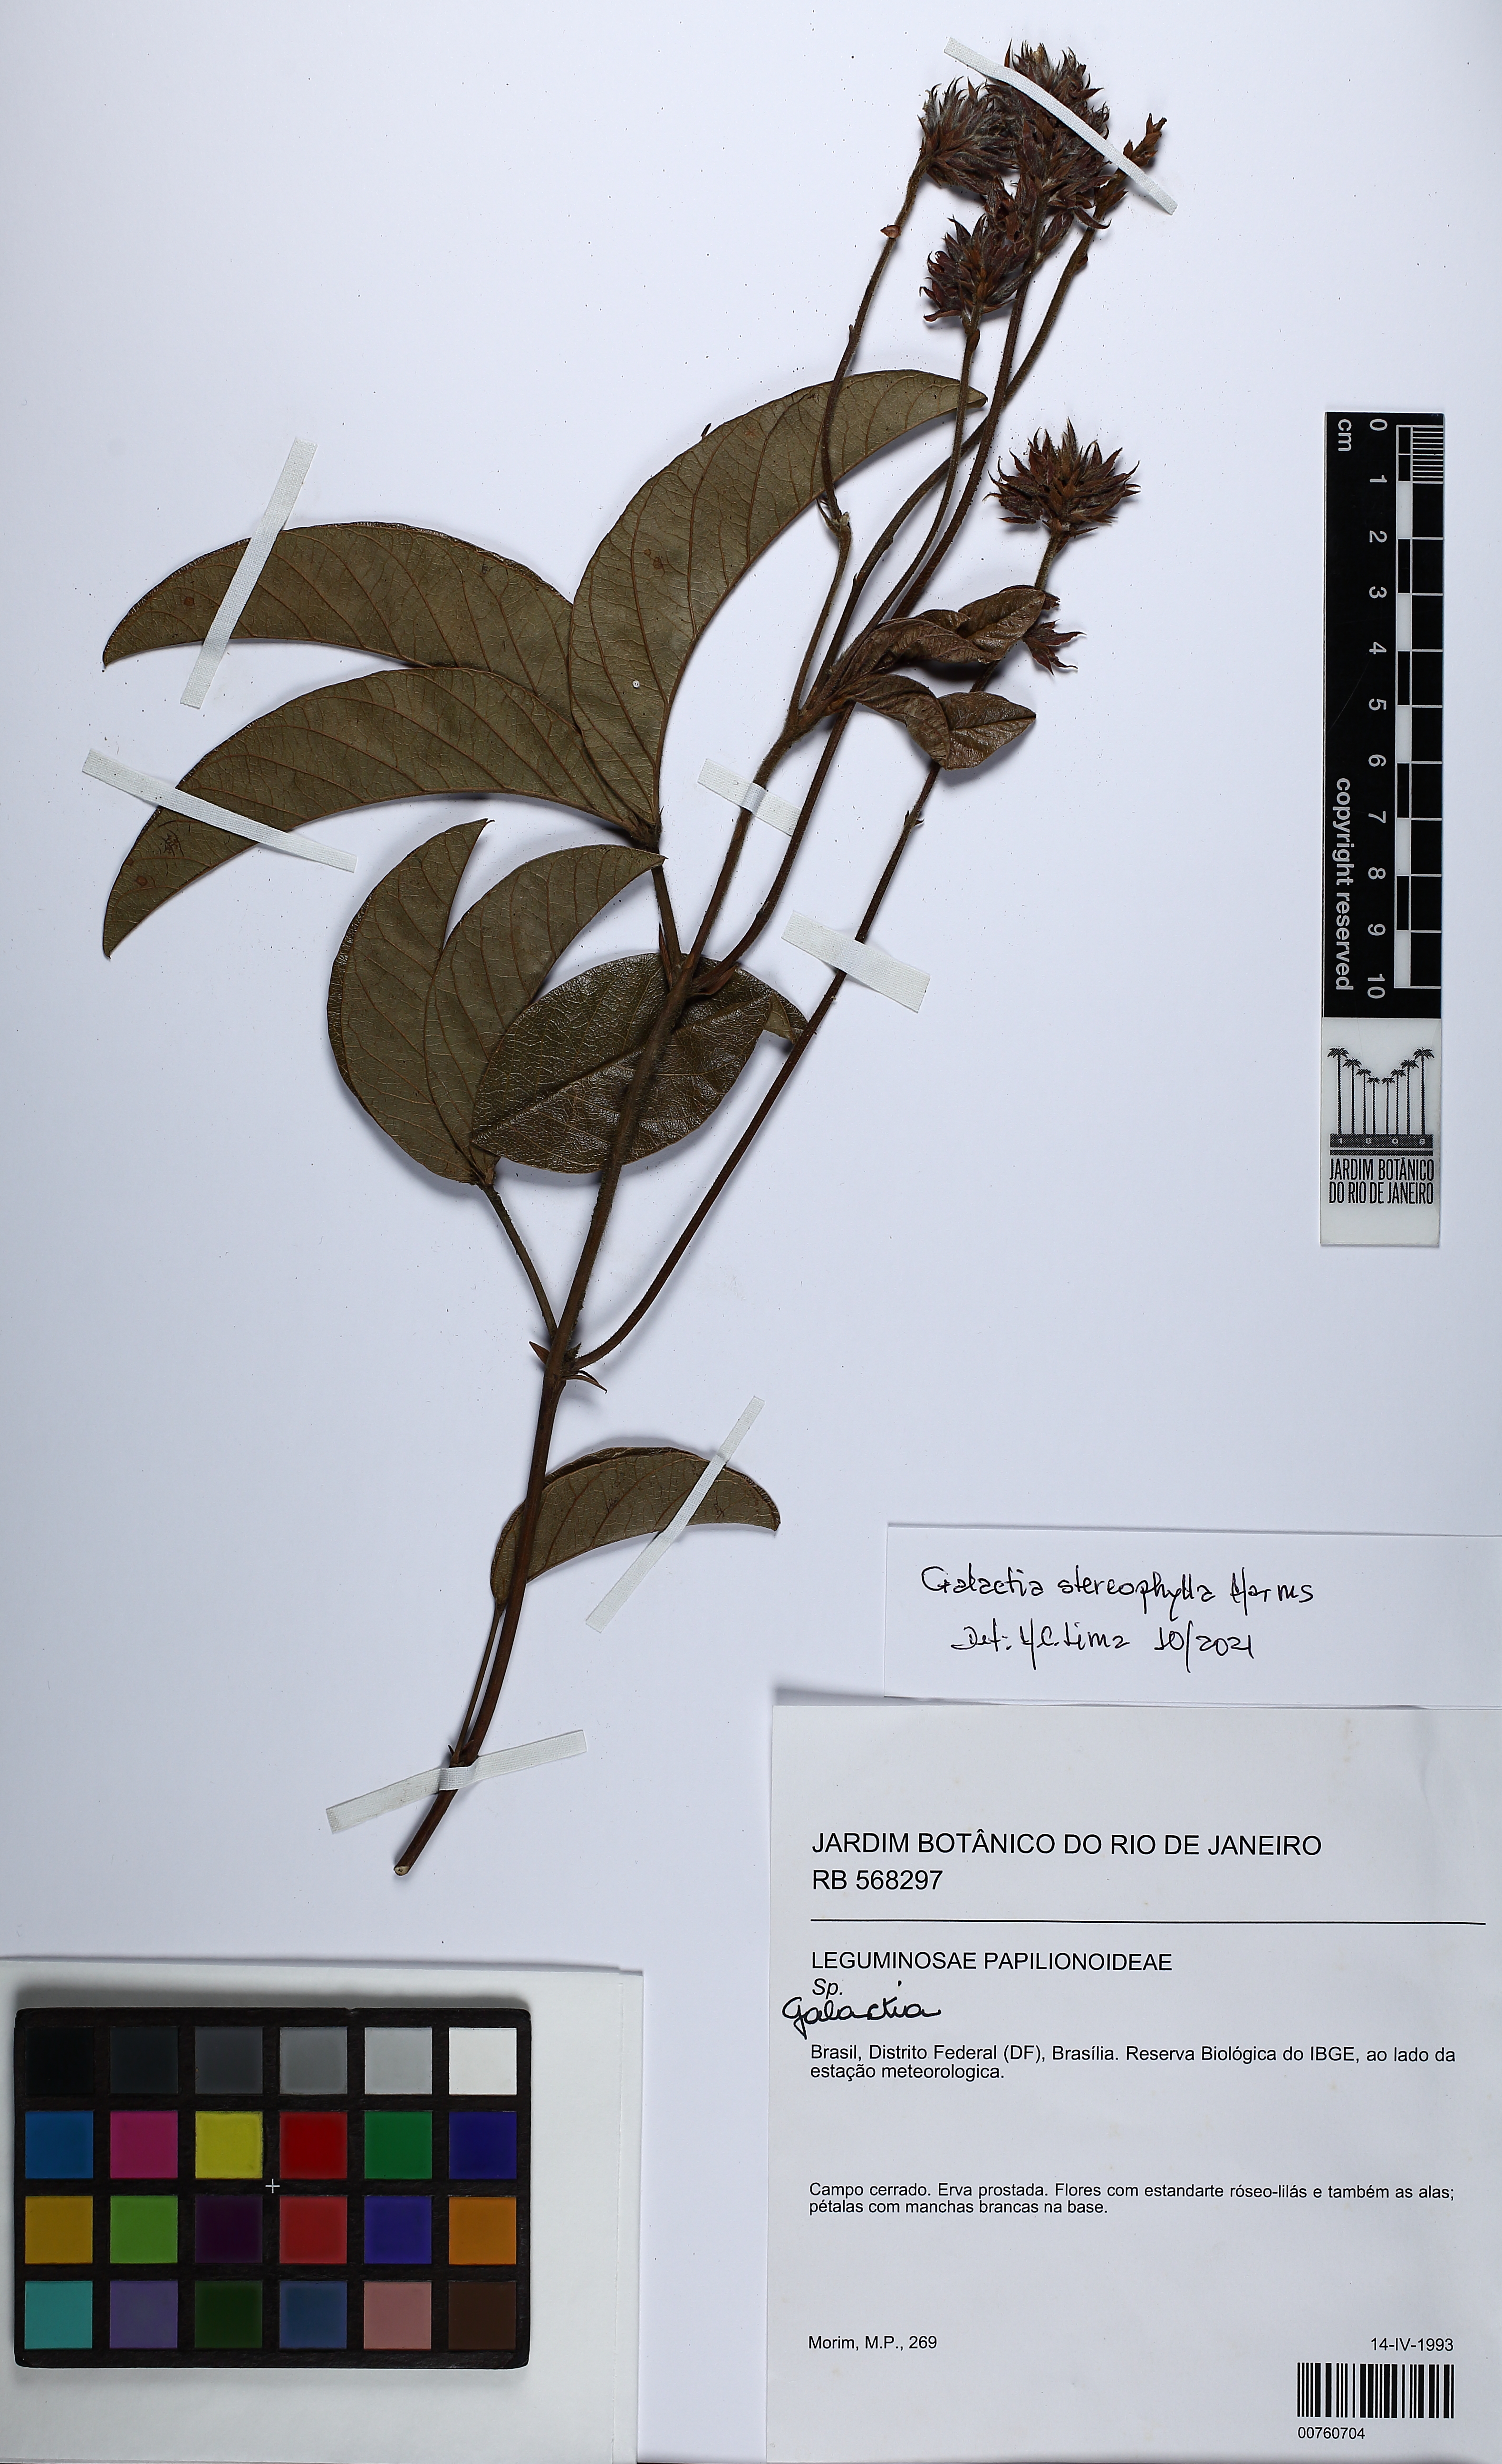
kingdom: Plantae
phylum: Tracheophyta
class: Magnoliopsida
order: Fabales
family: Fabaceae
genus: Betencourtia
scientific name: Betencourtia stereophylla
